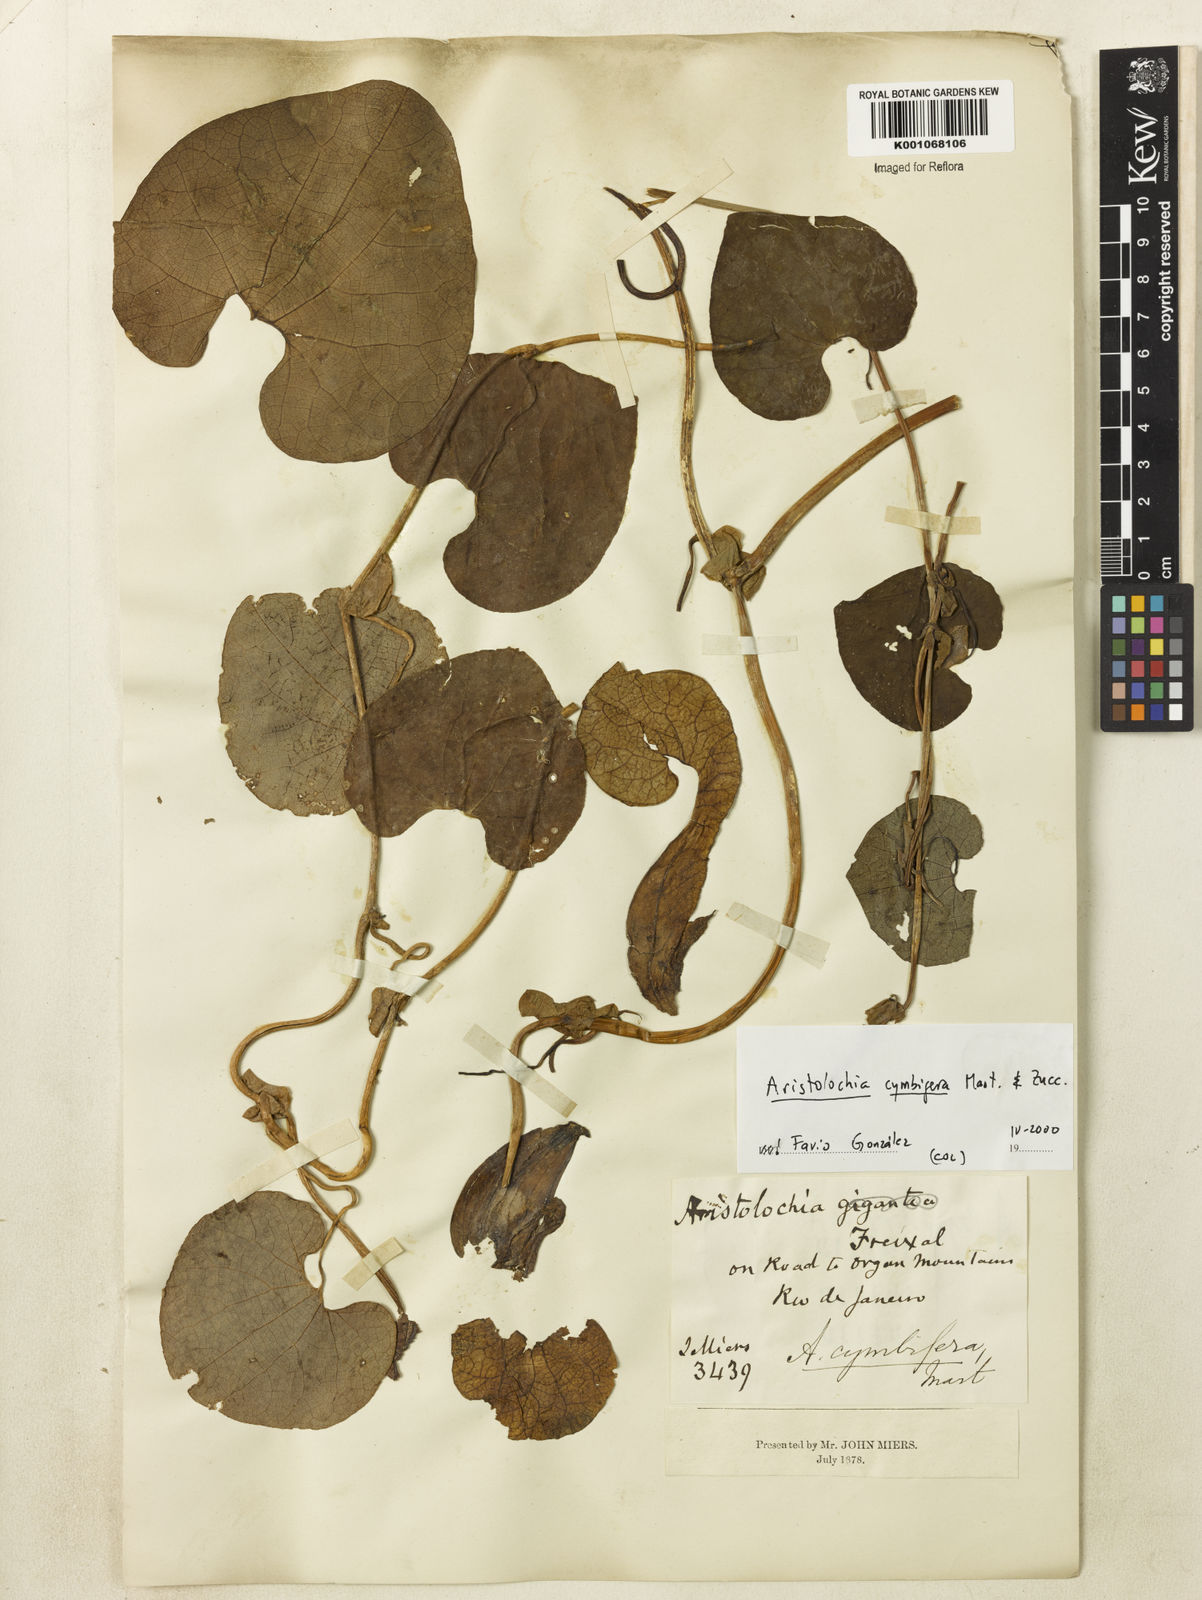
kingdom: Plantae
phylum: Tracheophyta
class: Magnoliopsida
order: Piperales
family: Aristolochiaceae
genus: Aristolochia
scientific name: Aristolochia cymbifera
